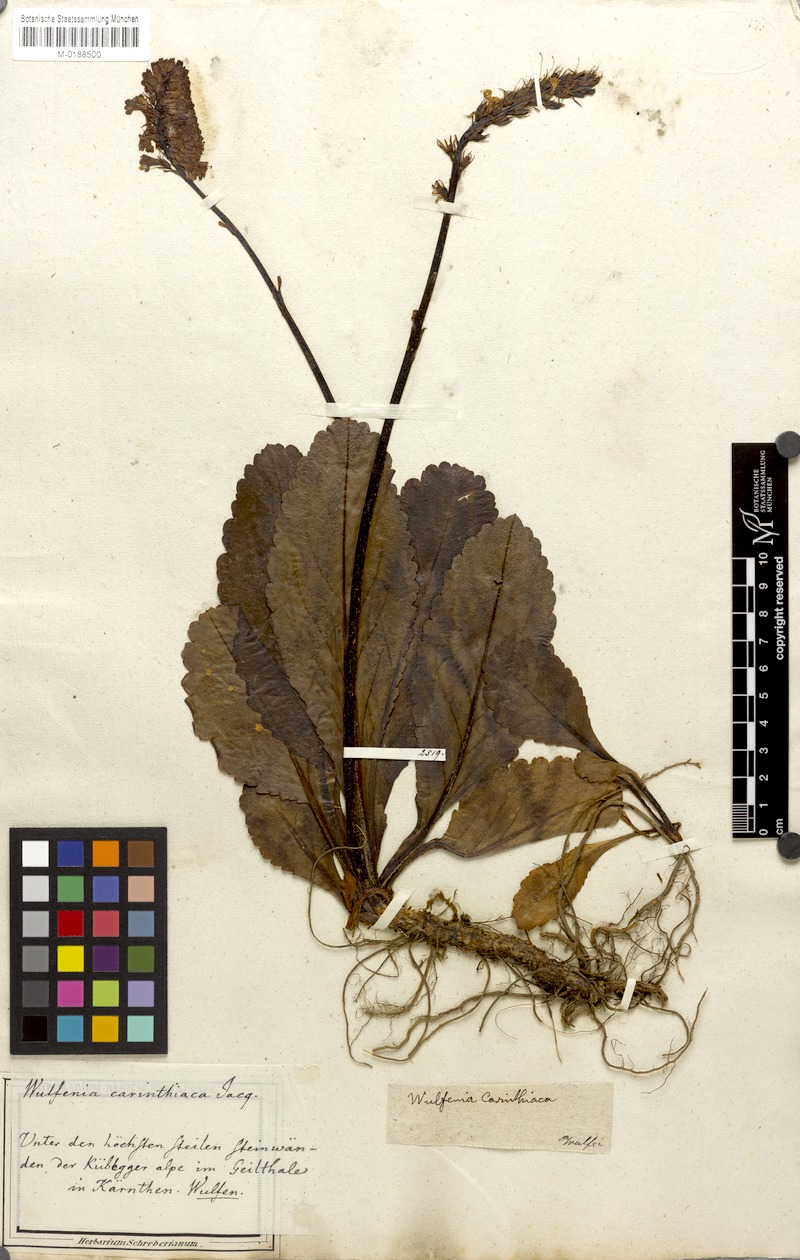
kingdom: Plantae
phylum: Tracheophyta
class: Magnoliopsida
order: Lamiales
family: Plantaginaceae
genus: Wulfenia
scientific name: Wulfenia carinthiaca
